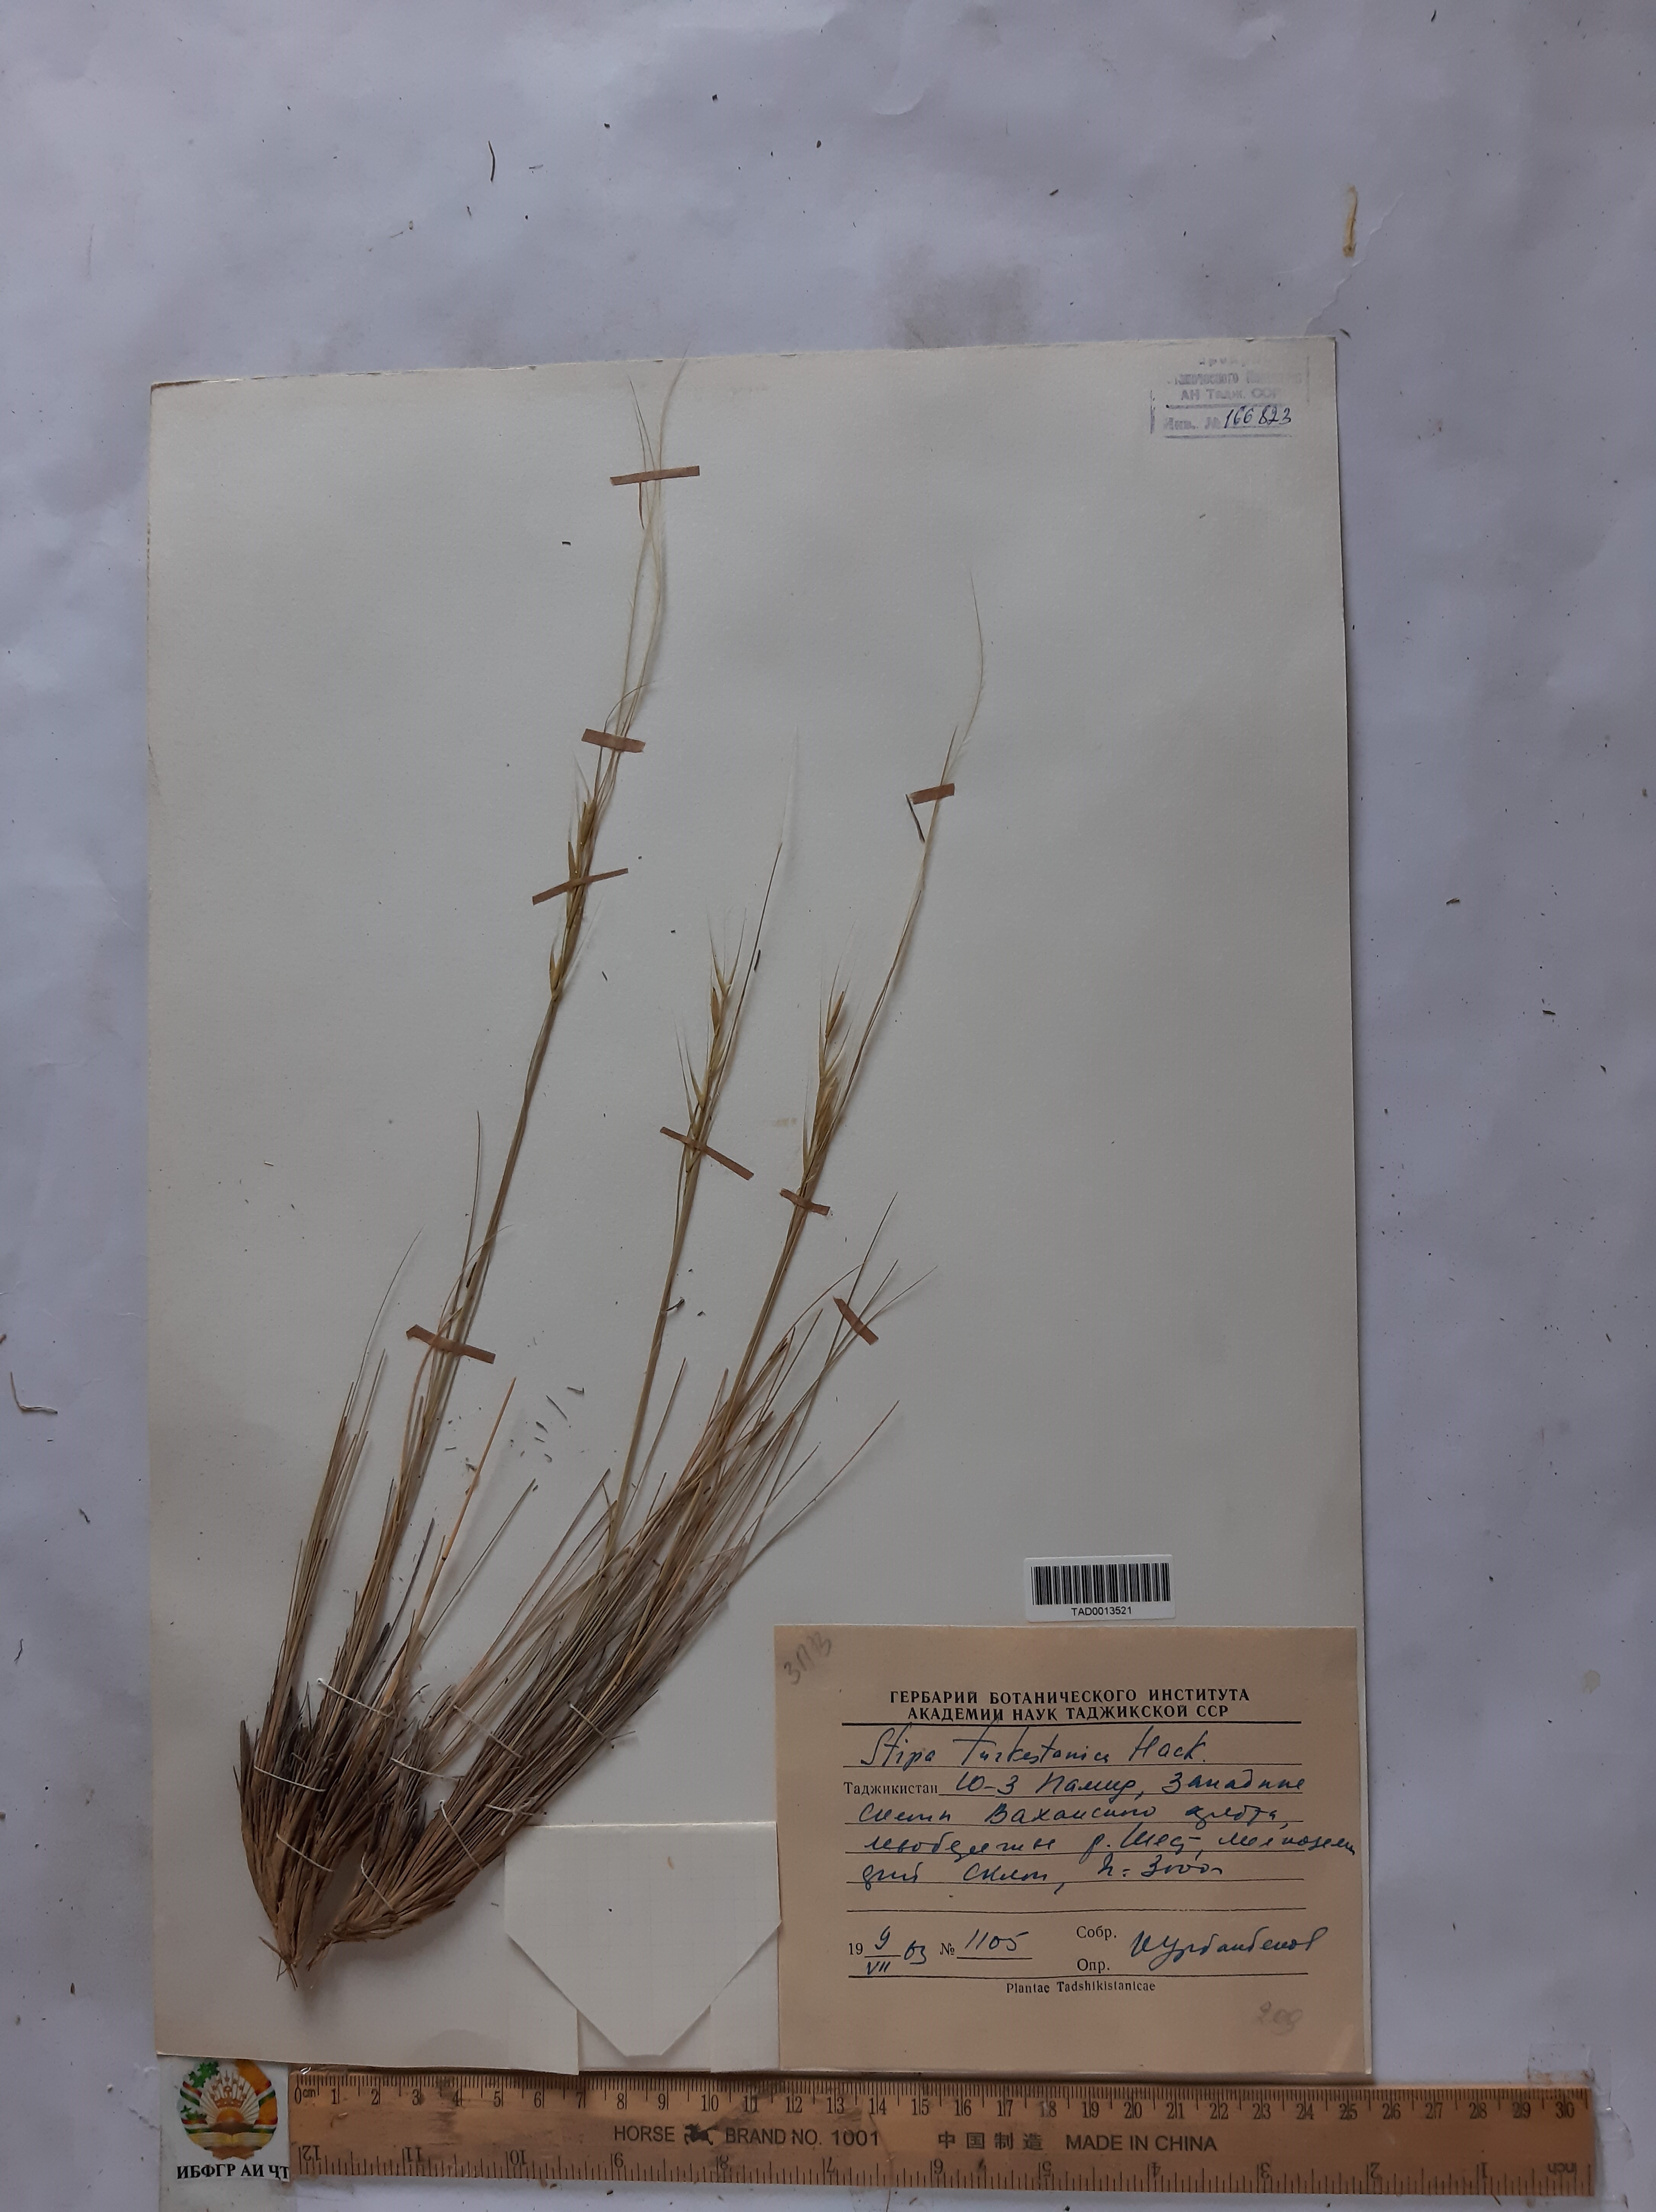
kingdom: Plantae
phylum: Tracheophyta
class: Liliopsida
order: Poales
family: Poaceae
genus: Stipa
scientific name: Stipa turkestanica
